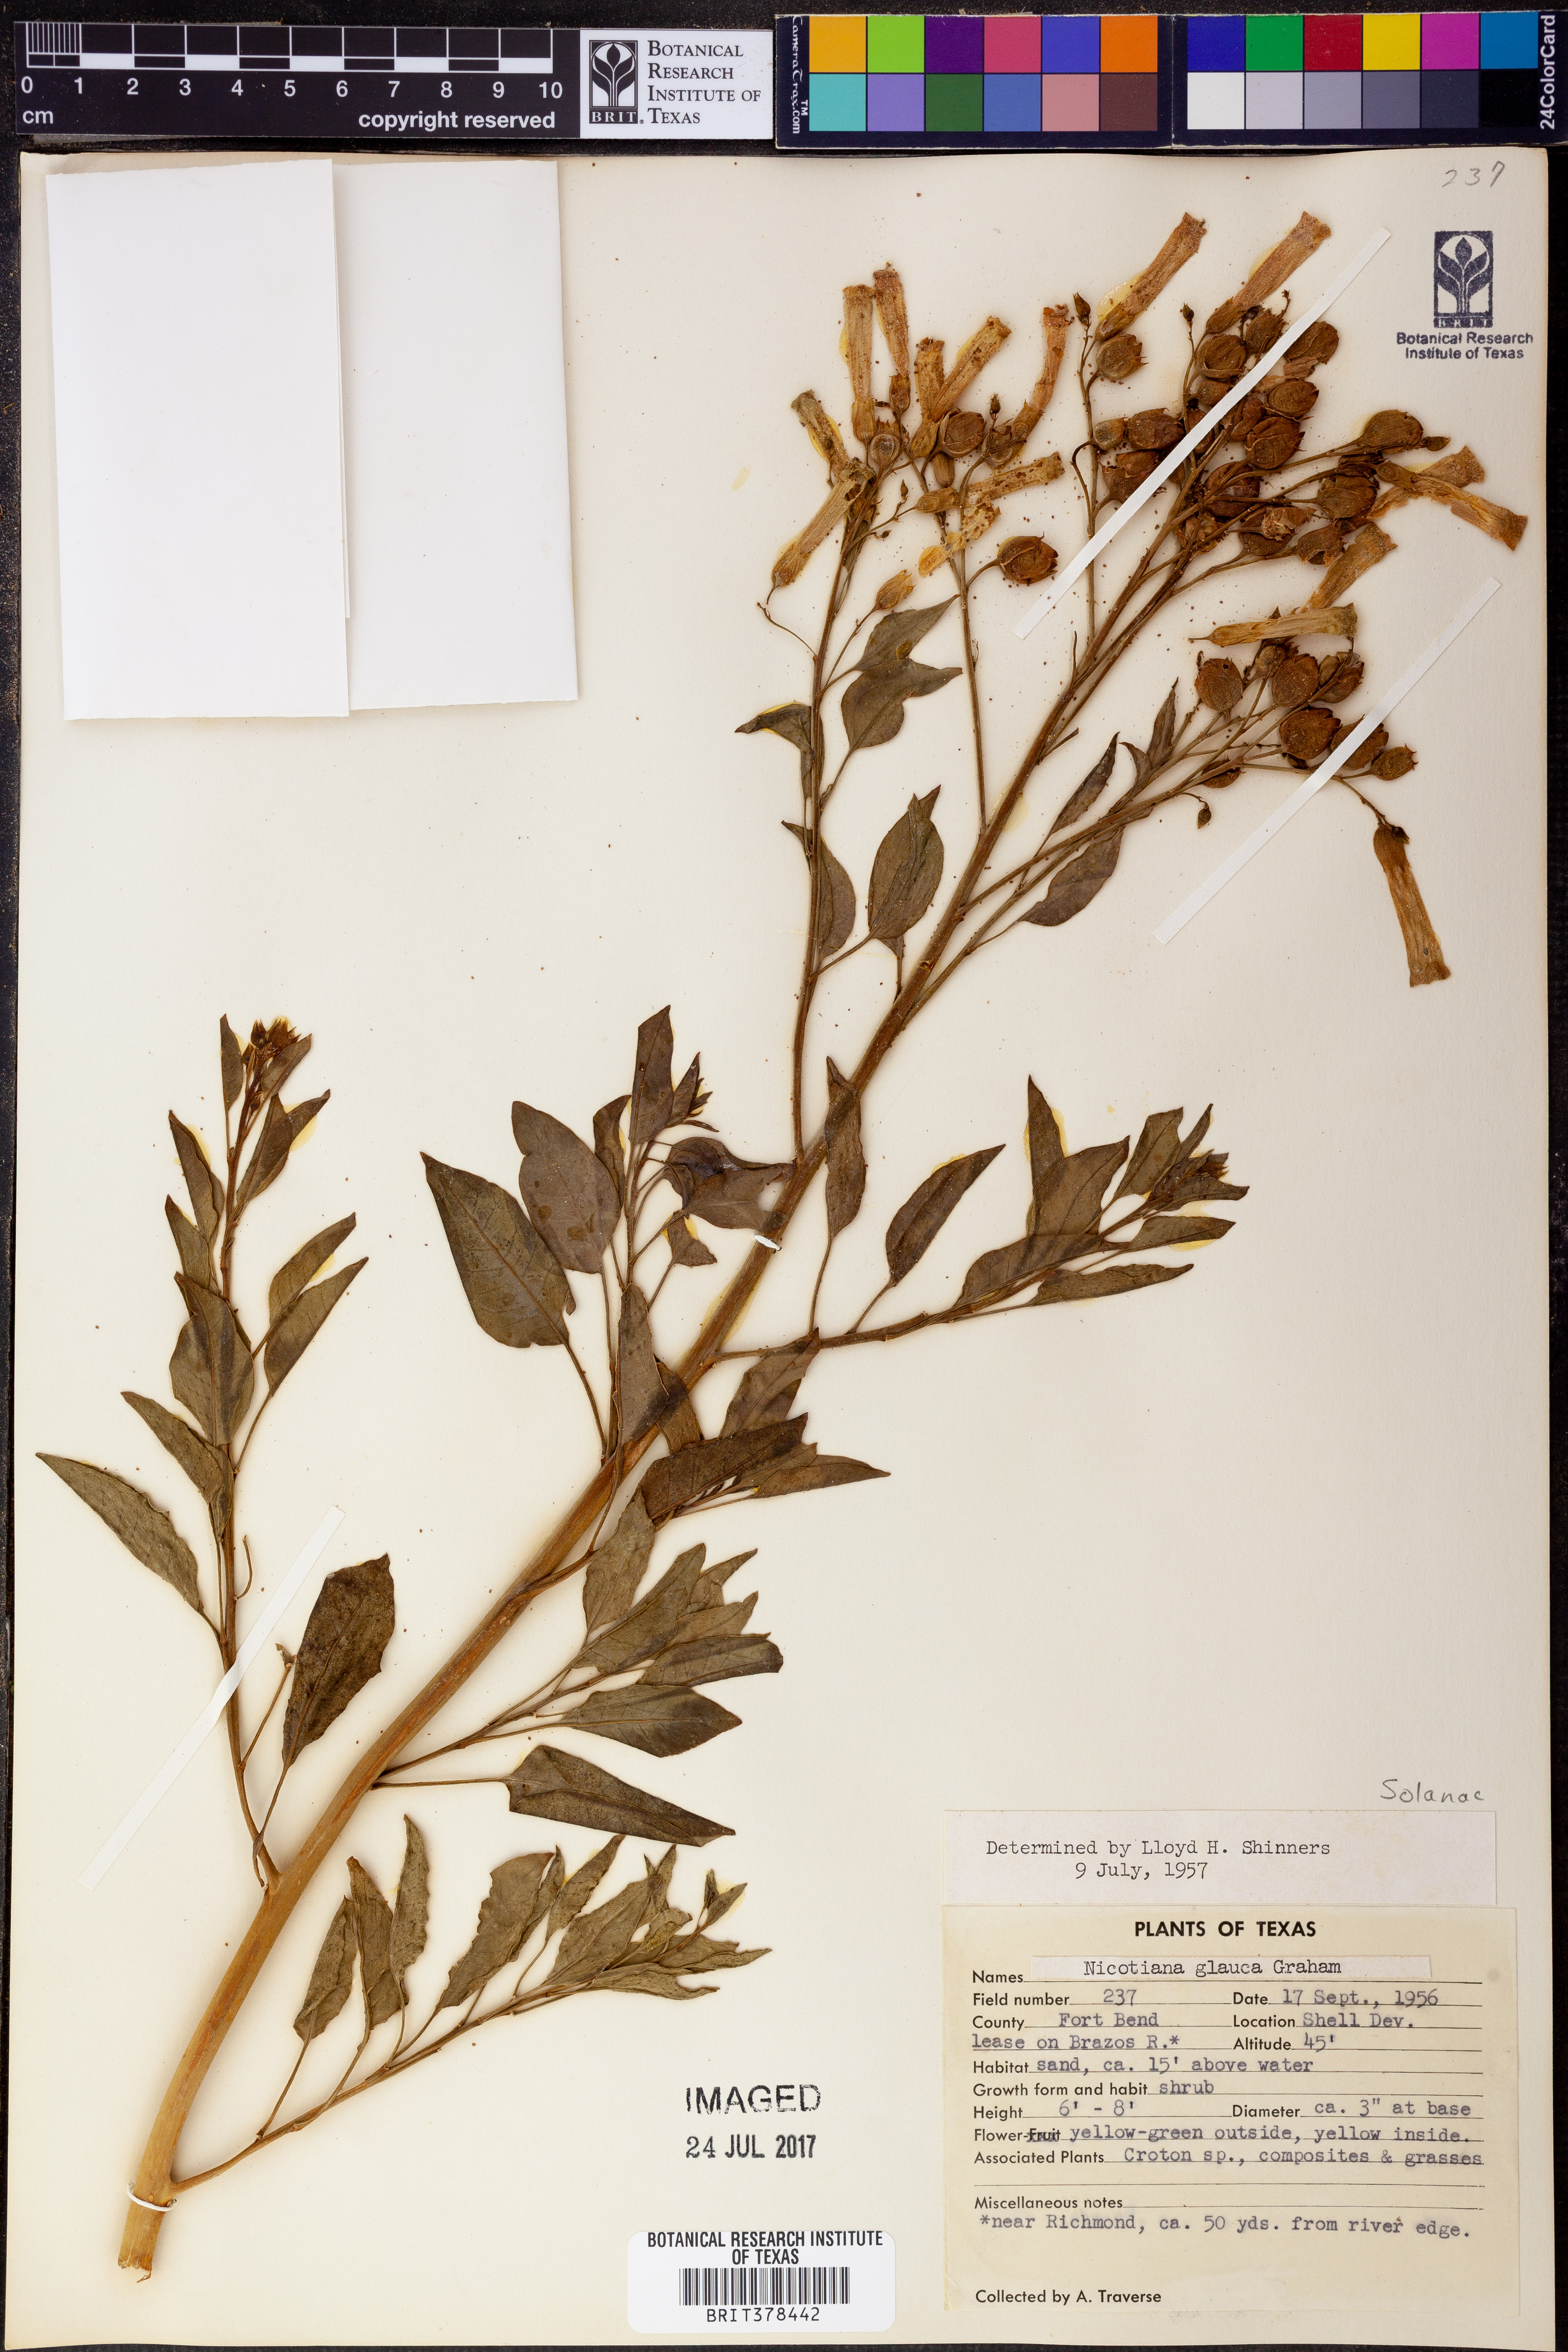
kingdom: Plantae
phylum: Tracheophyta
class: Magnoliopsida
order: Solanales
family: Solanaceae
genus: Nicotiana
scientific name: Nicotiana glauca
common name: Tree tobacco
